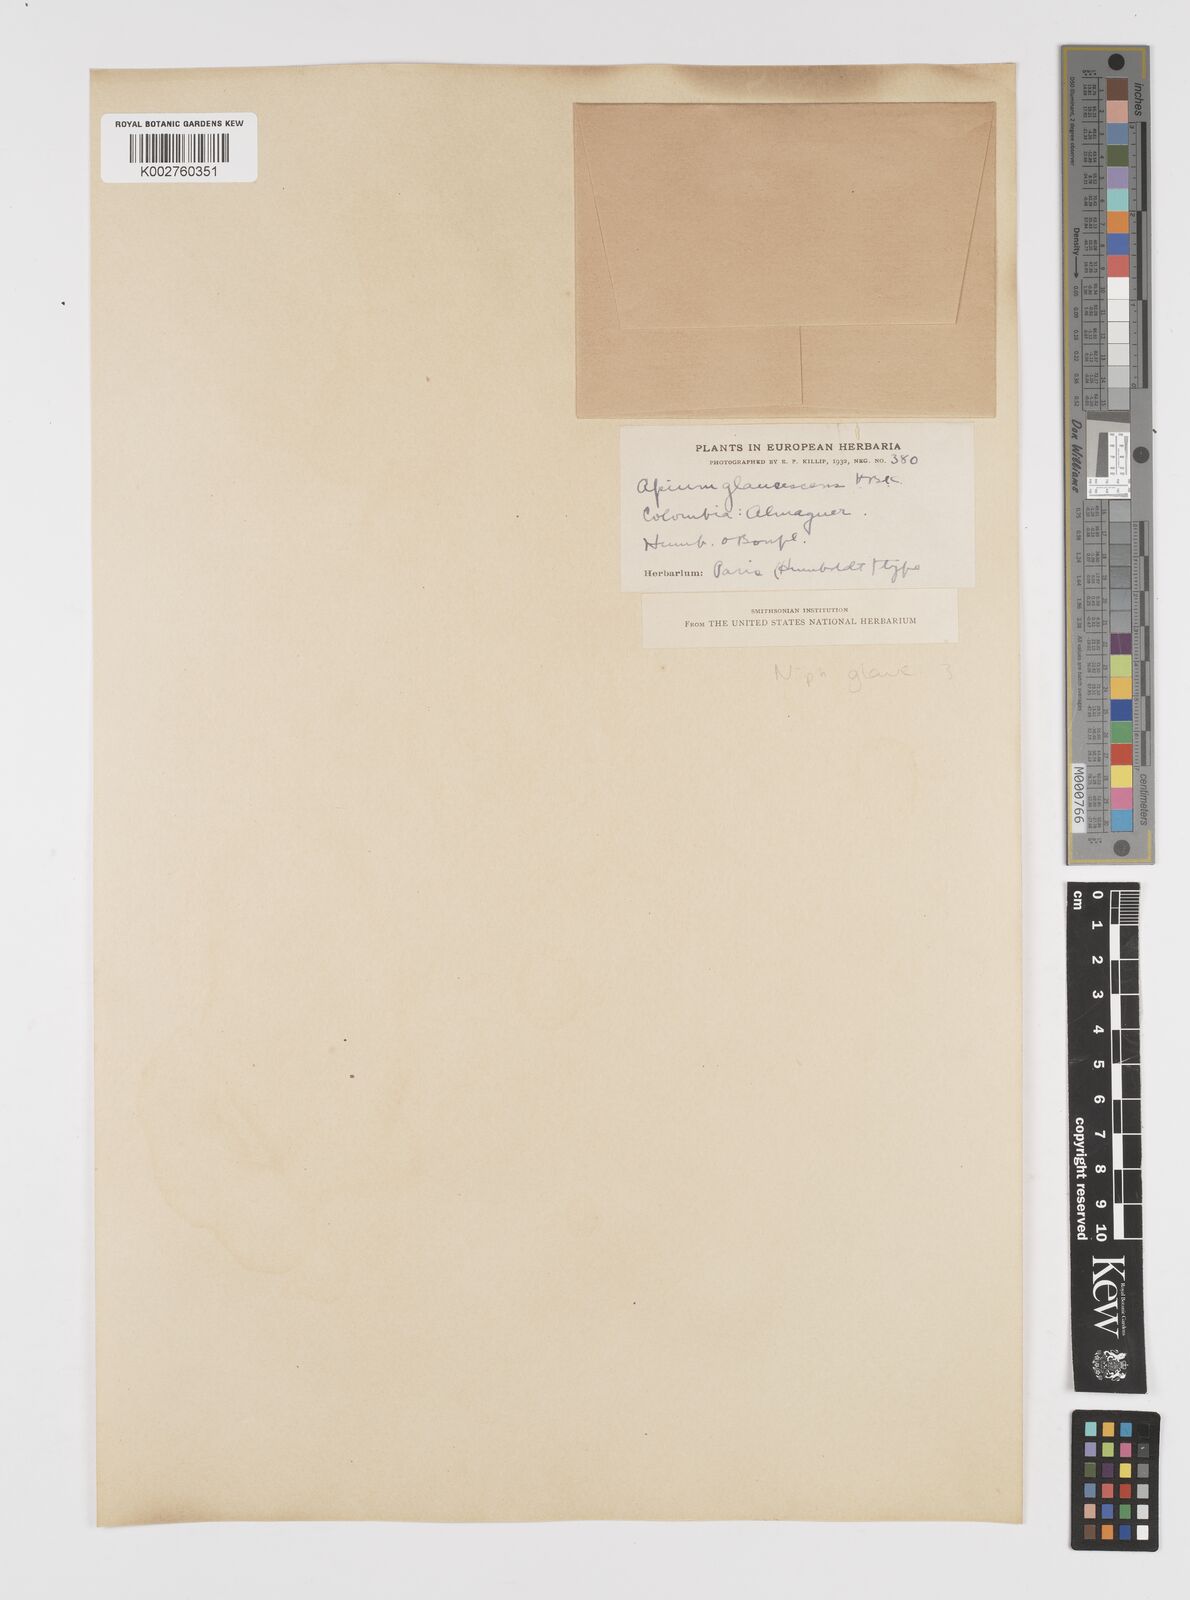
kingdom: Plantae
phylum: Tracheophyta
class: Magnoliopsida
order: Apiales
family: Apiaceae
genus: Niphogeton
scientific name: Niphogeton glaucescens
